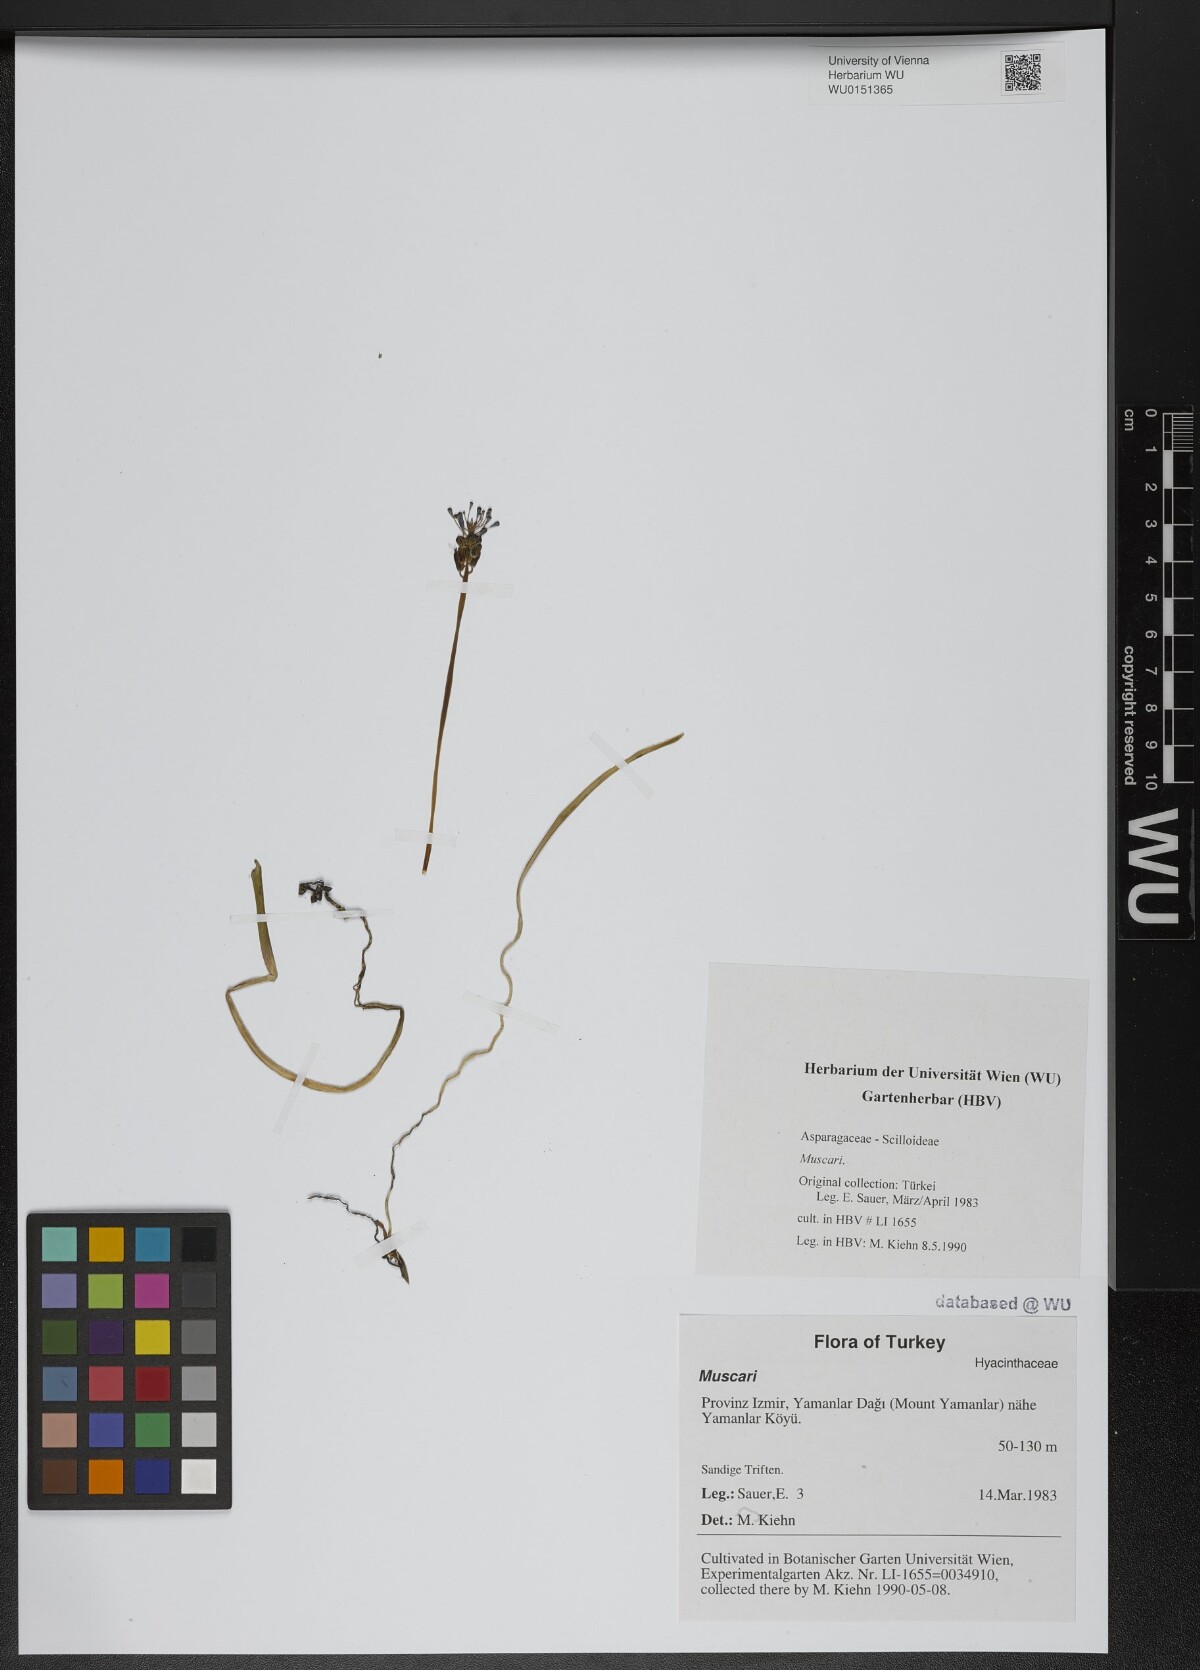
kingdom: Plantae
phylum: Tracheophyta
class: Liliopsida
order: Asparagales
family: Asparagaceae
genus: Muscari
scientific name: Muscari
